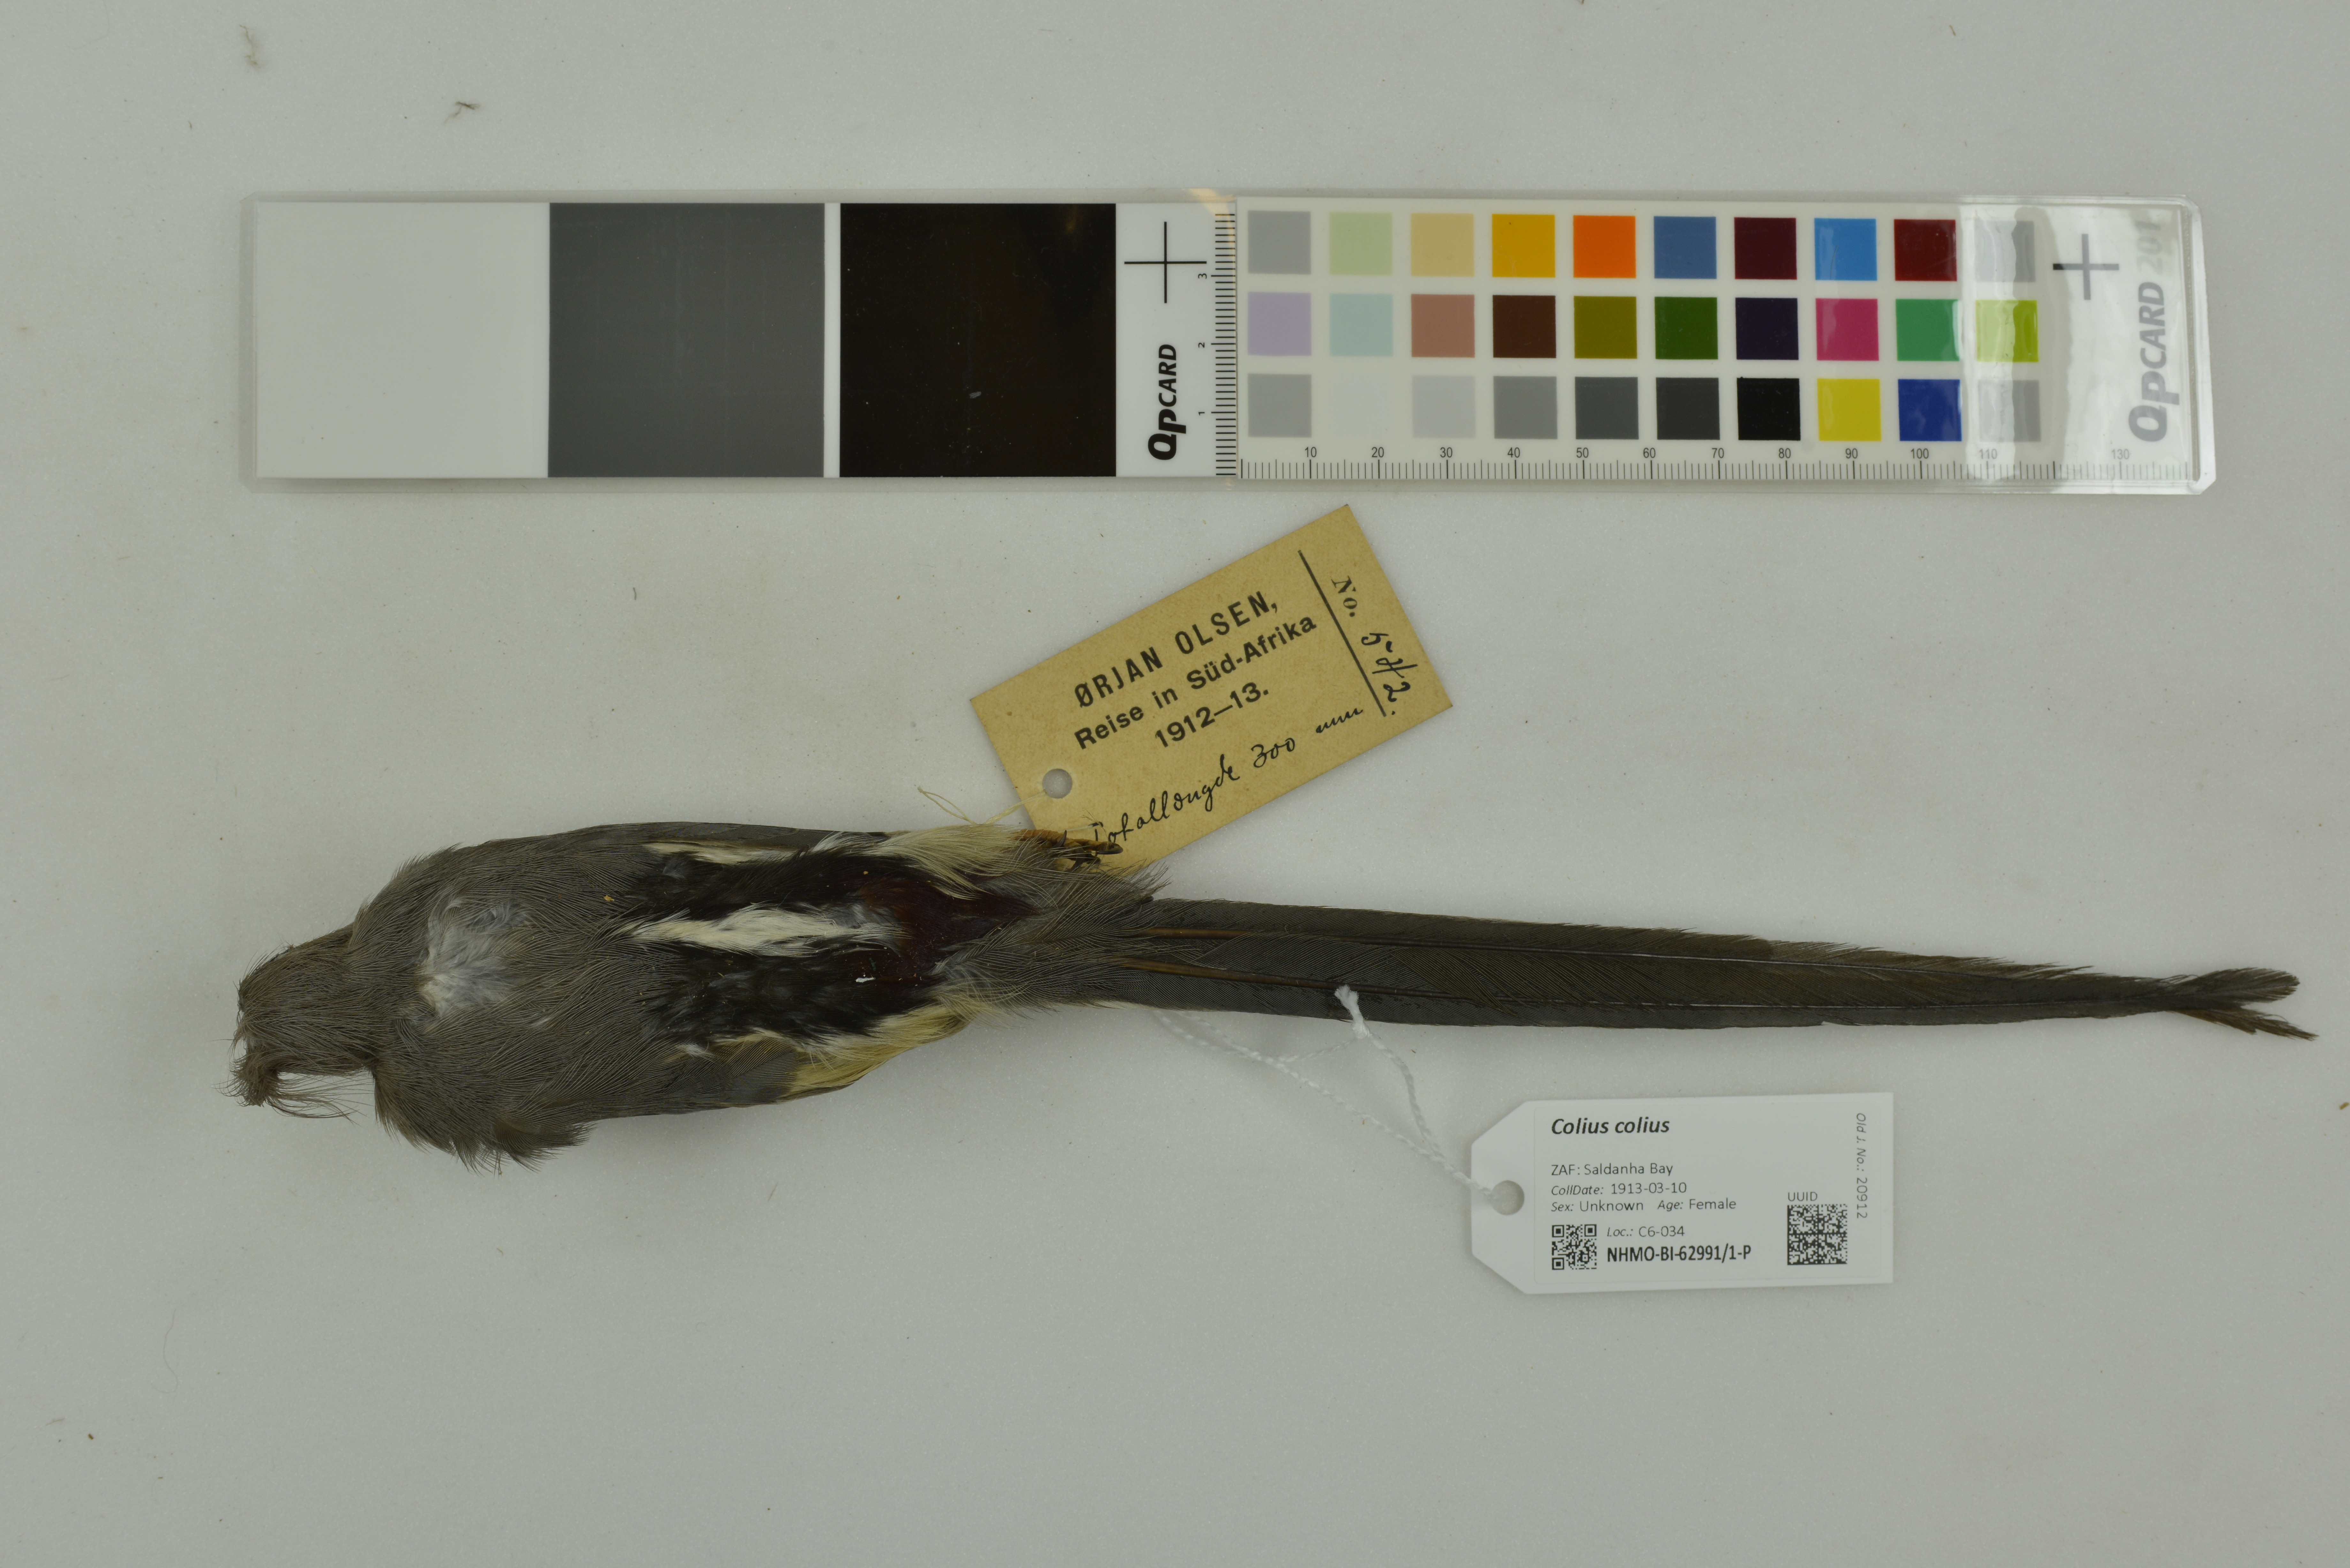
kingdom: Animalia
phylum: Chordata
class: Aves
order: Coliiformes
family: Coliidae
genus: Colius
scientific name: Colius colius
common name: White-backed mousebird
